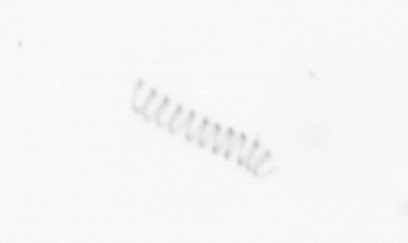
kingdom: Chromista
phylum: Ochrophyta
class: Bacillariophyceae
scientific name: Bacillariophyceae
